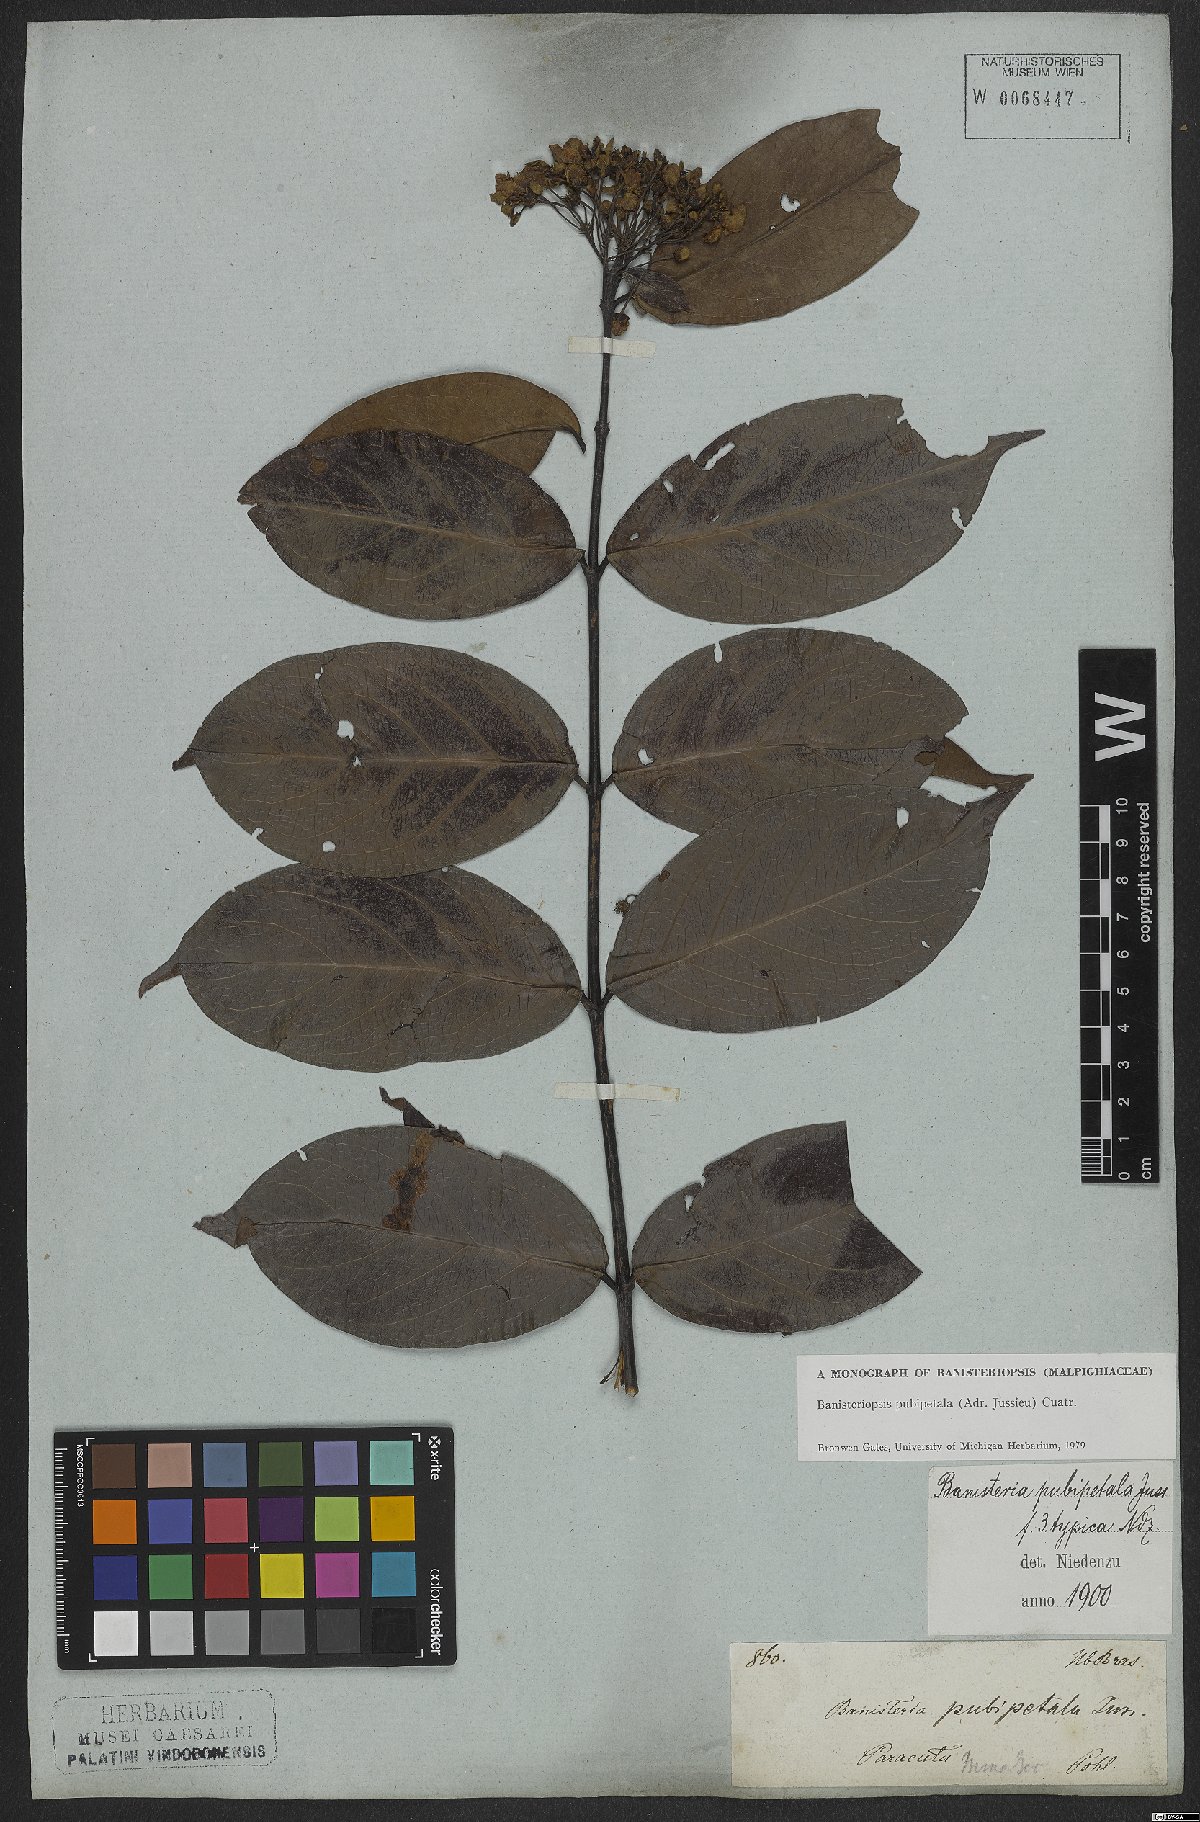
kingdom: Plantae
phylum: Tracheophyta
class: Magnoliopsida
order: Malpighiales
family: Malpighiaceae
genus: Diplopterys
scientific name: Diplopterys pubipetala
